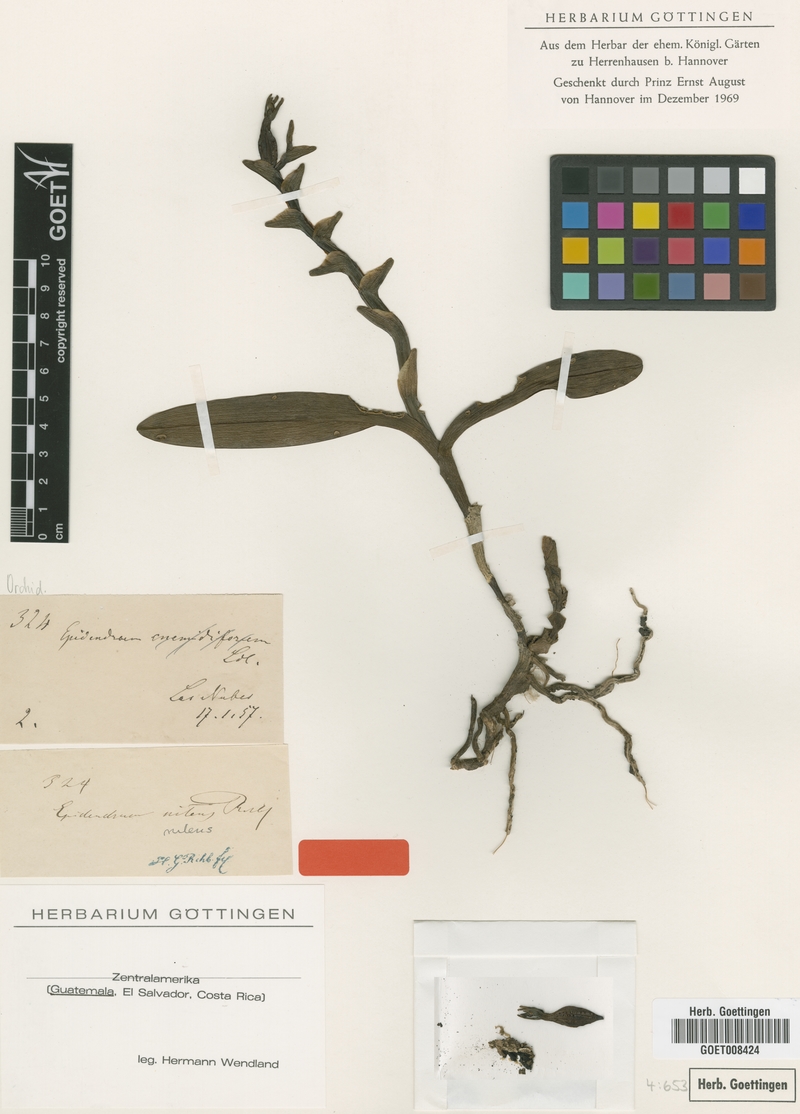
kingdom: Plantae
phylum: Tracheophyta
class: Liliopsida
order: Asparagales
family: Orchidaceae
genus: Epidendrum
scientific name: Epidendrum nitens
